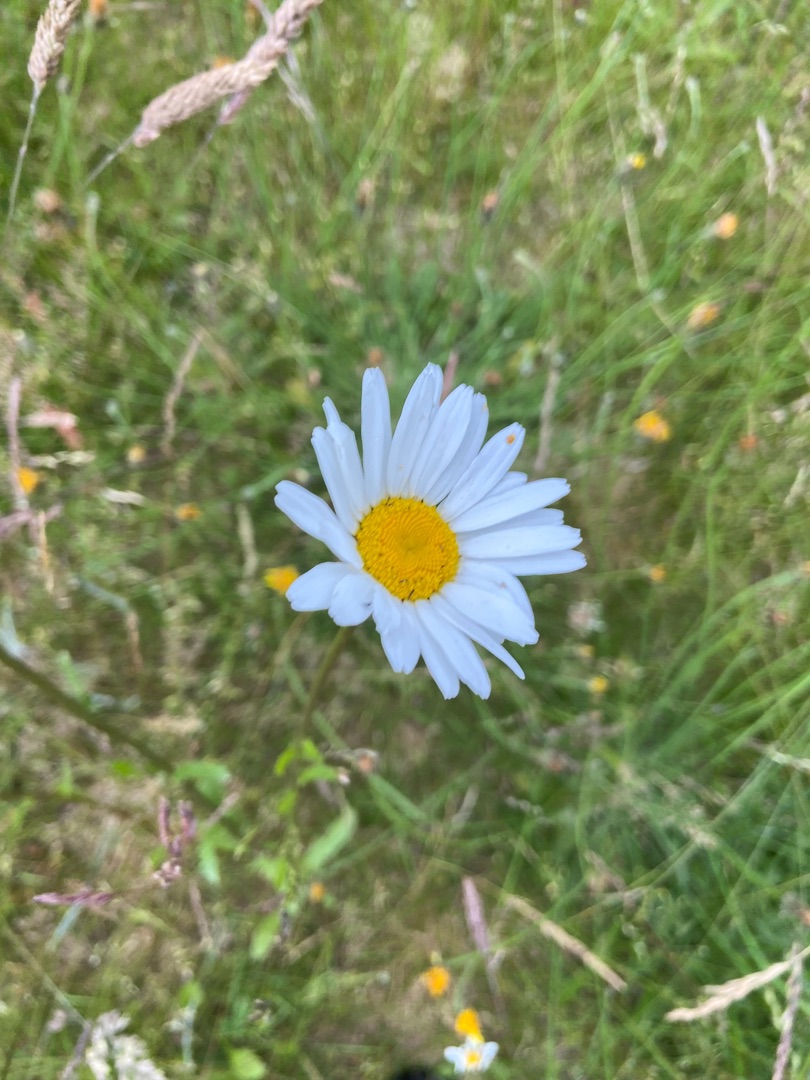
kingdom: Plantae
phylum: Tracheophyta
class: Magnoliopsida
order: Asterales
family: Asteraceae
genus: Leucanthemum
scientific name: Leucanthemum vulgare
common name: Hvid okseøje
